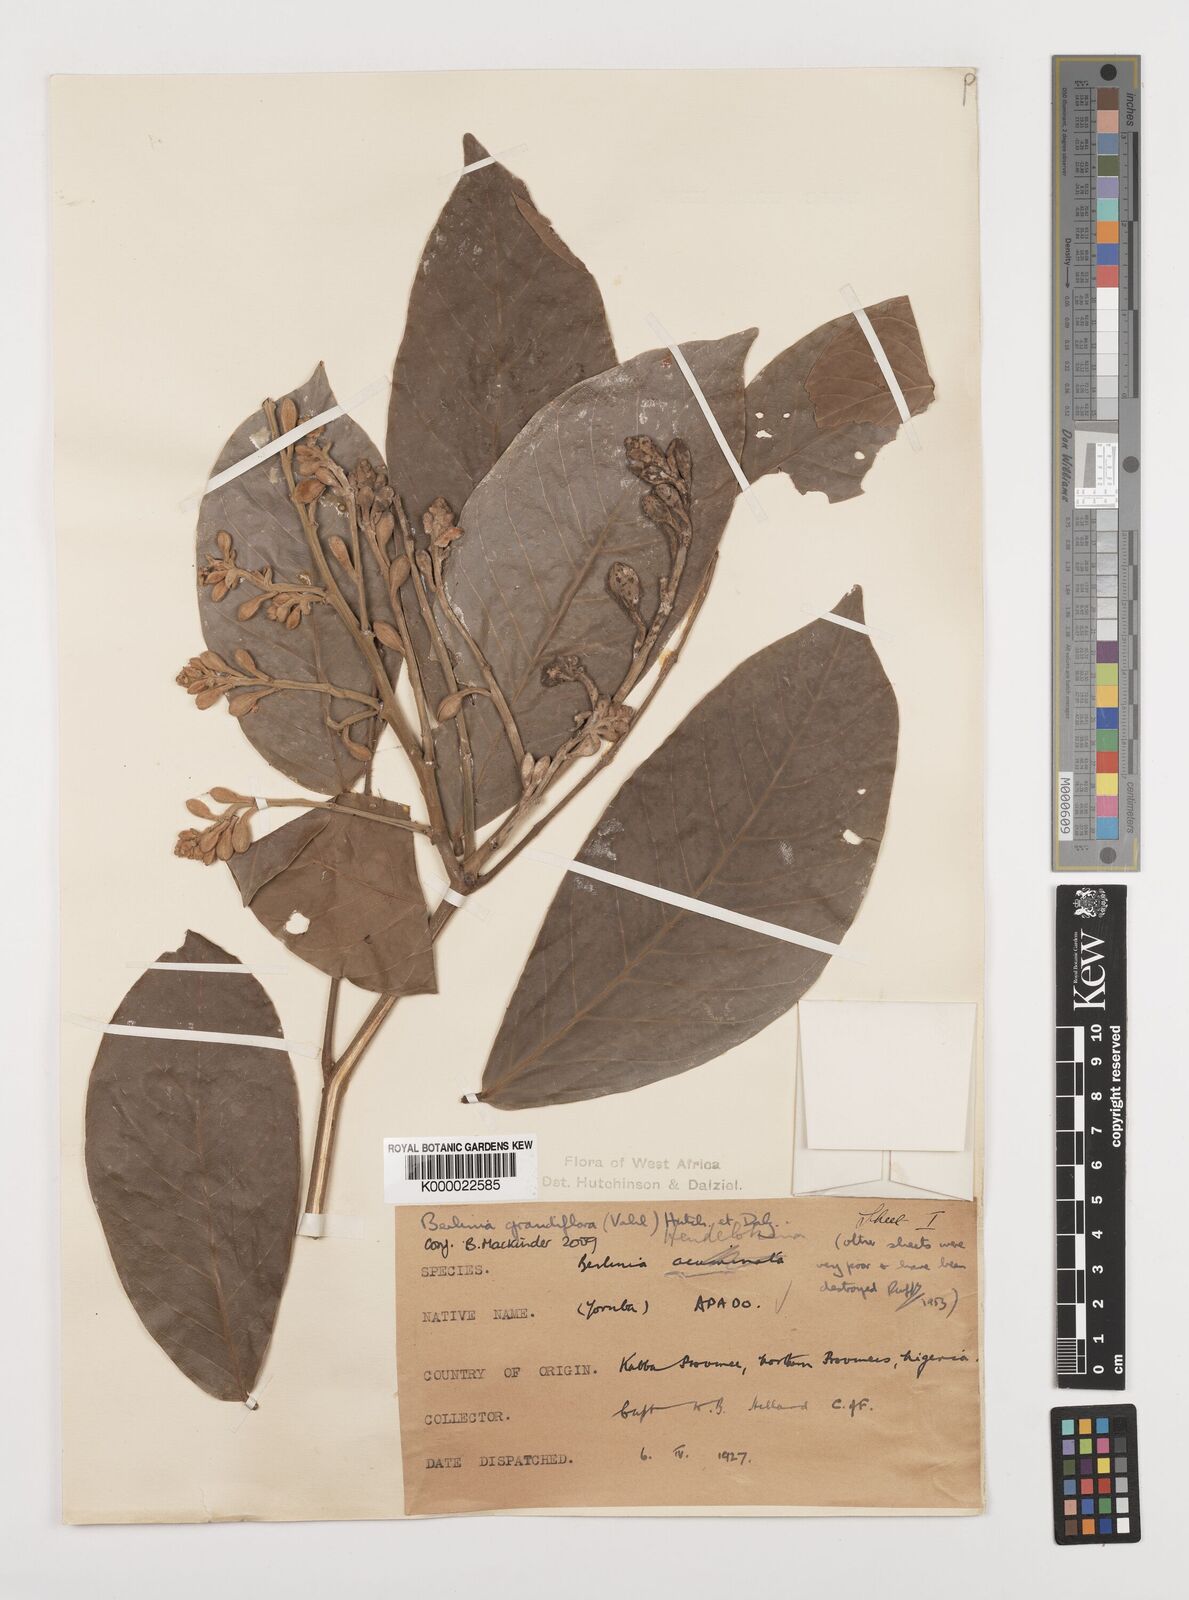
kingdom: Plantae
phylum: Tracheophyta
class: Magnoliopsida
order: Fabales
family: Fabaceae
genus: Berlinia
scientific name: Berlinia grandiflora
